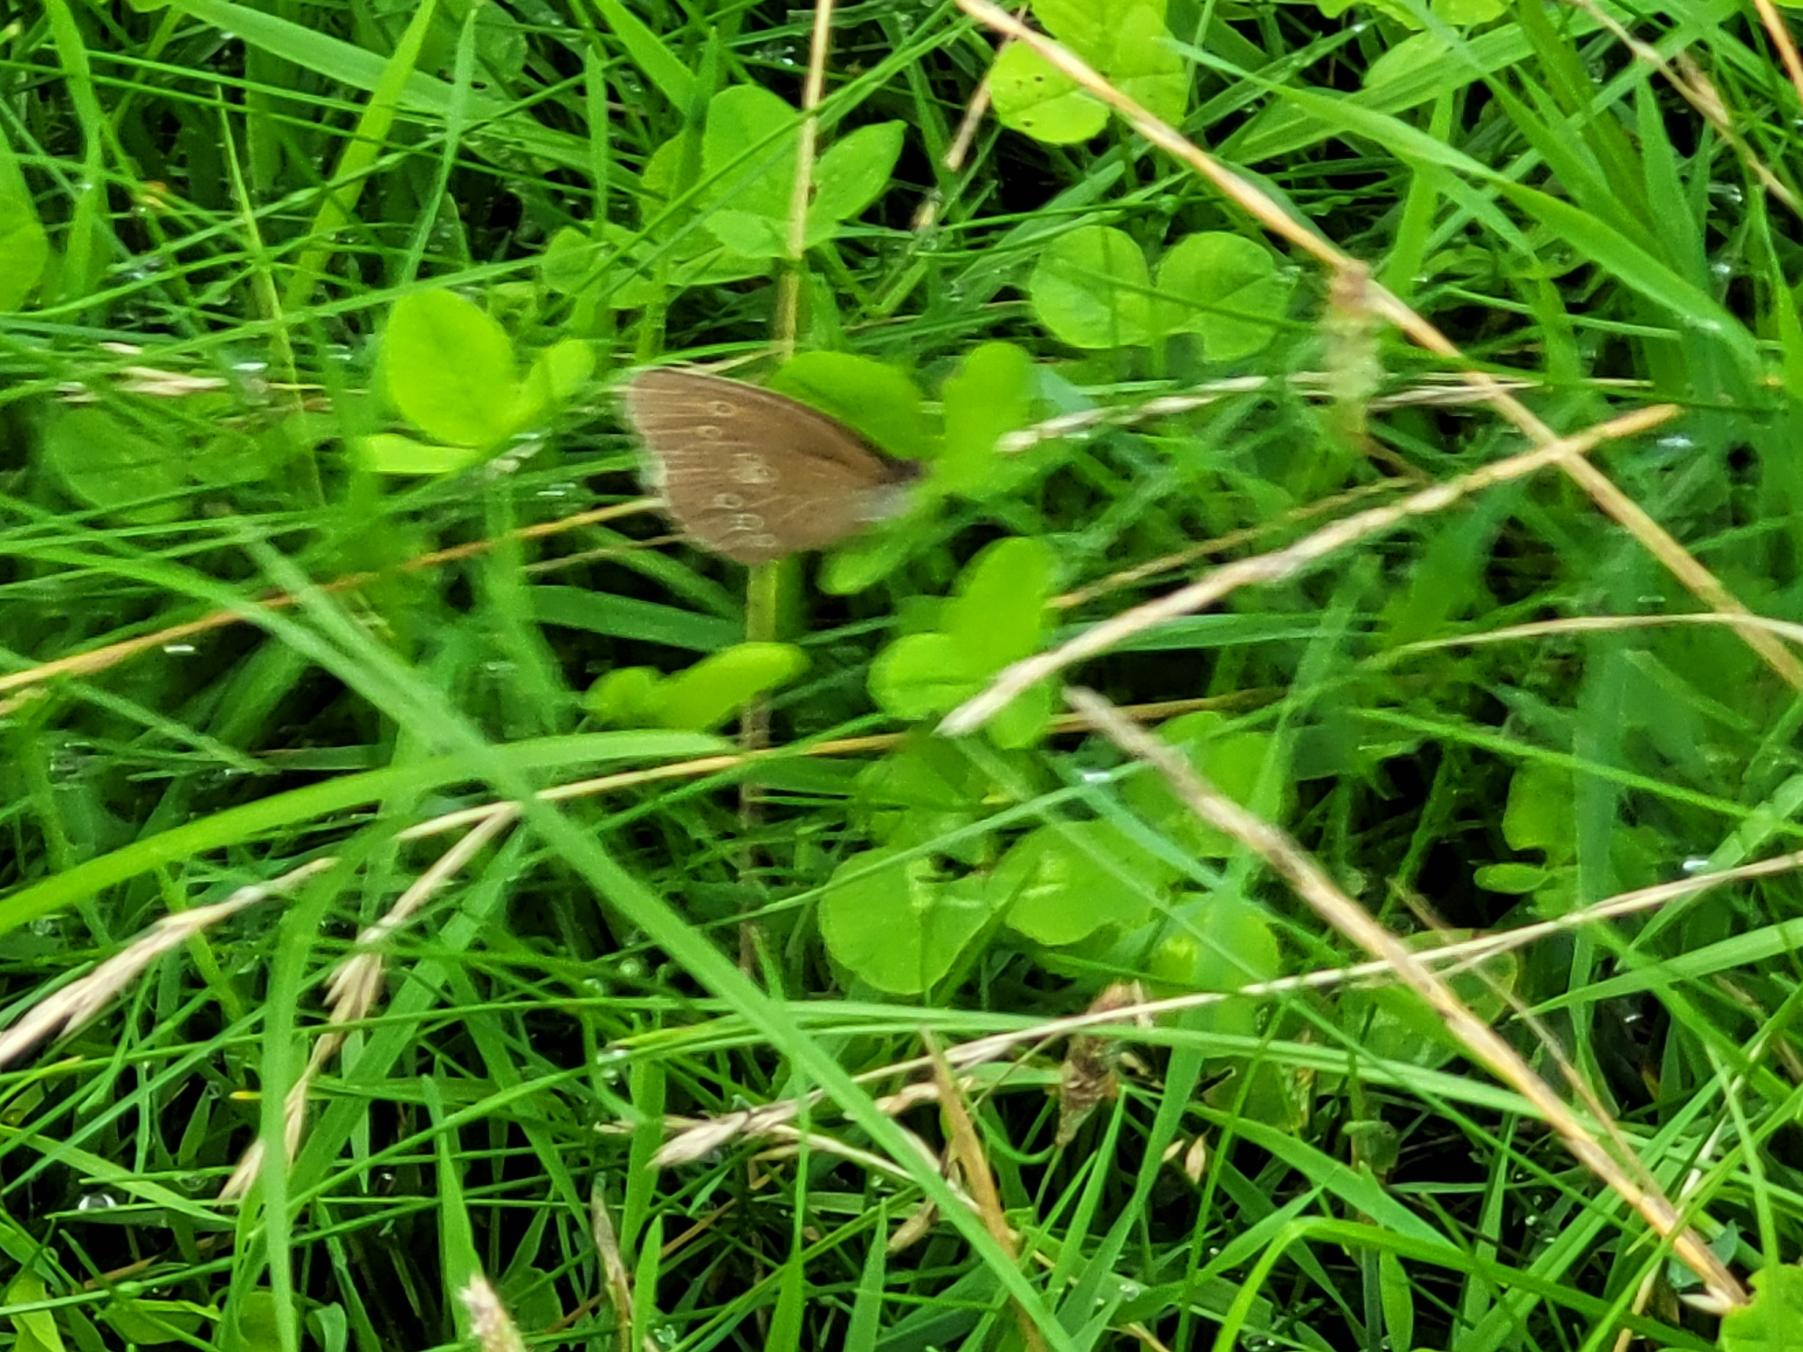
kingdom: Animalia
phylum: Arthropoda
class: Insecta
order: Lepidoptera
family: Nymphalidae
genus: Aphantopus
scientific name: Aphantopus hyperantus
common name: Engrandøje
